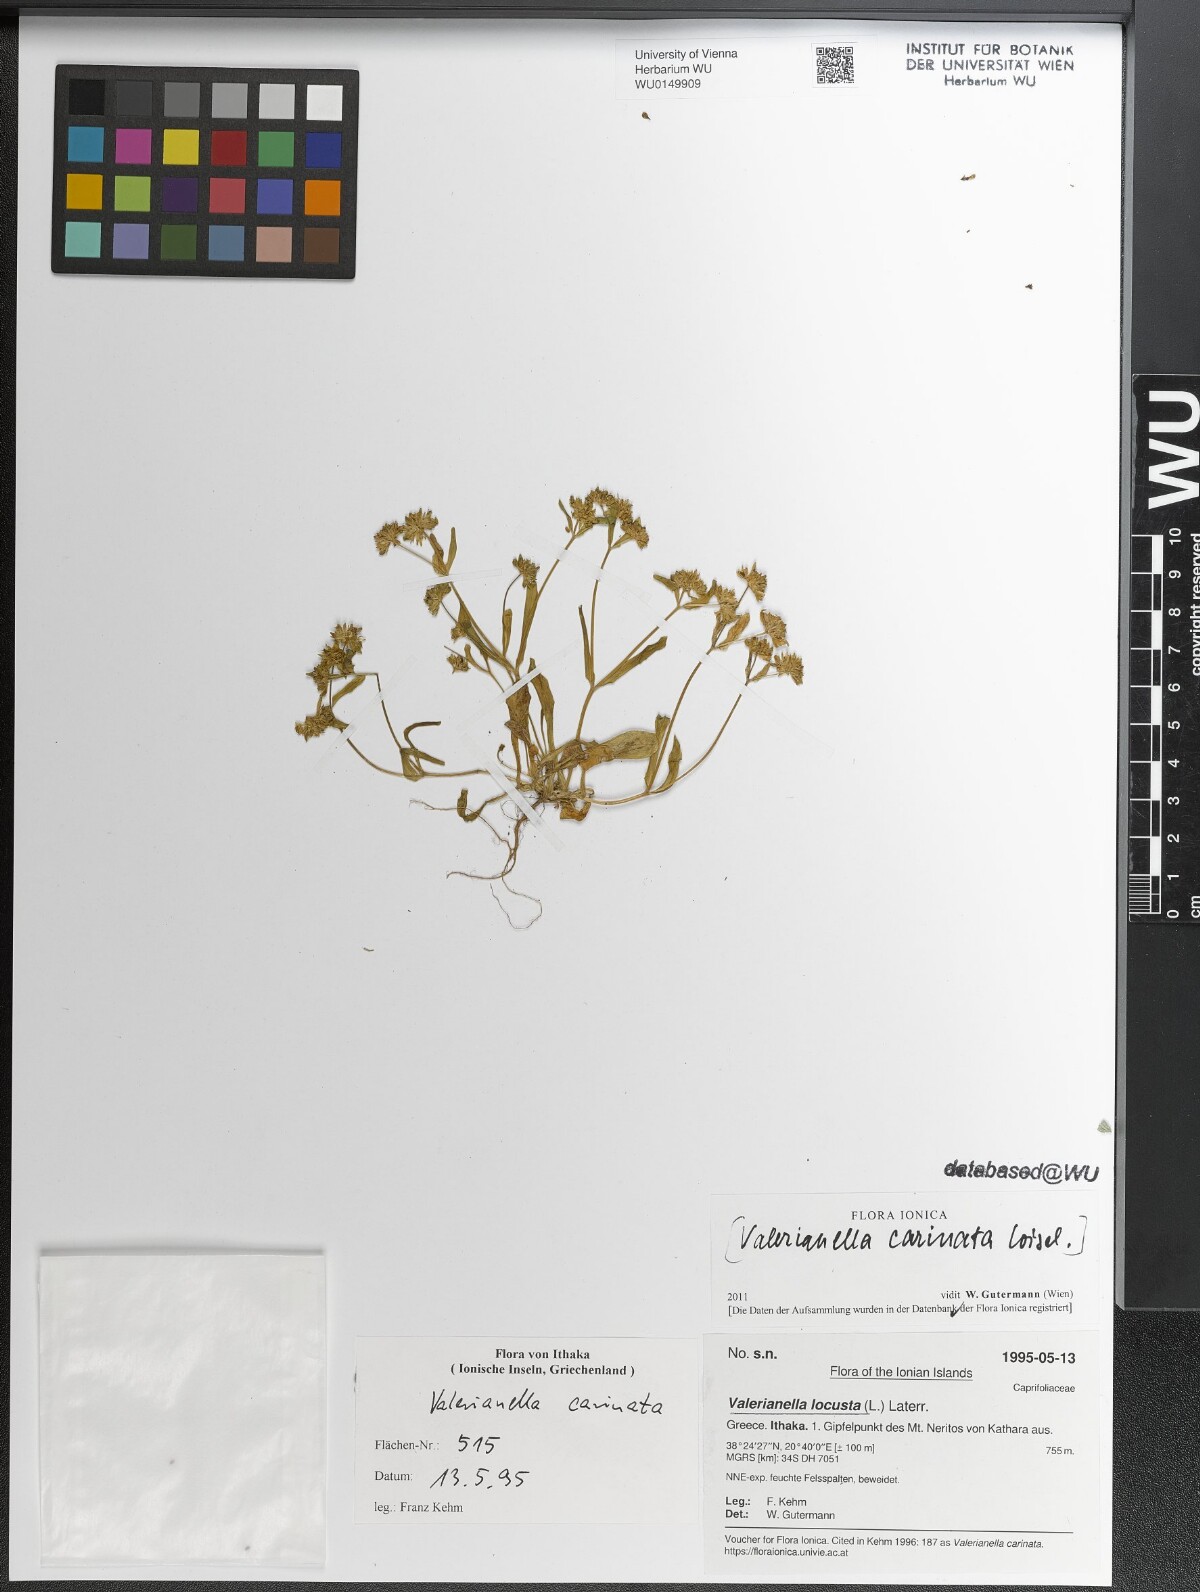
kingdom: Plantae
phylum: Tracheophyta
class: Magnoliopsida
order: Dipsacales
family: Caprifoliaceae
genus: Valerianella
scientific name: Valerianella locusta
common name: Common cornsalad
